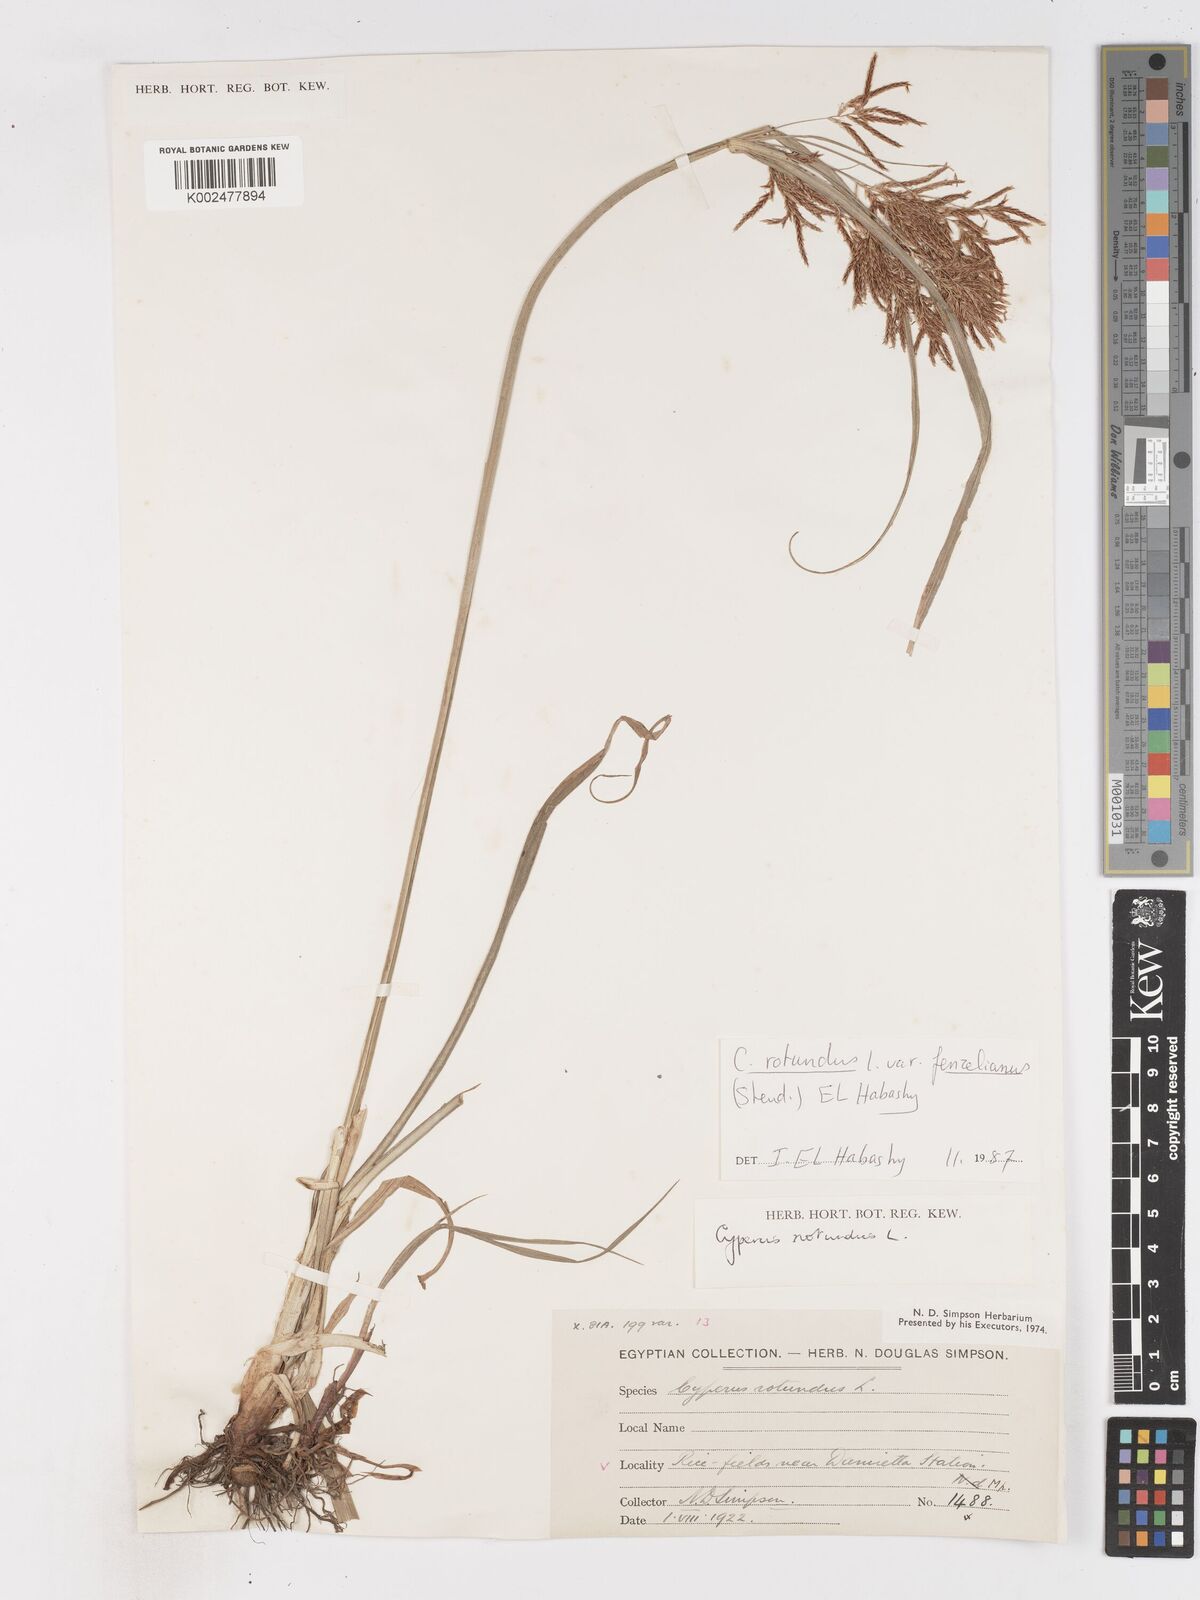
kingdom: Plantae
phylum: Tracheophyta
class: Liliopsida
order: Poales
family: Cyperaceae
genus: Cyperus
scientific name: Cyperus longus
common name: Galingale
